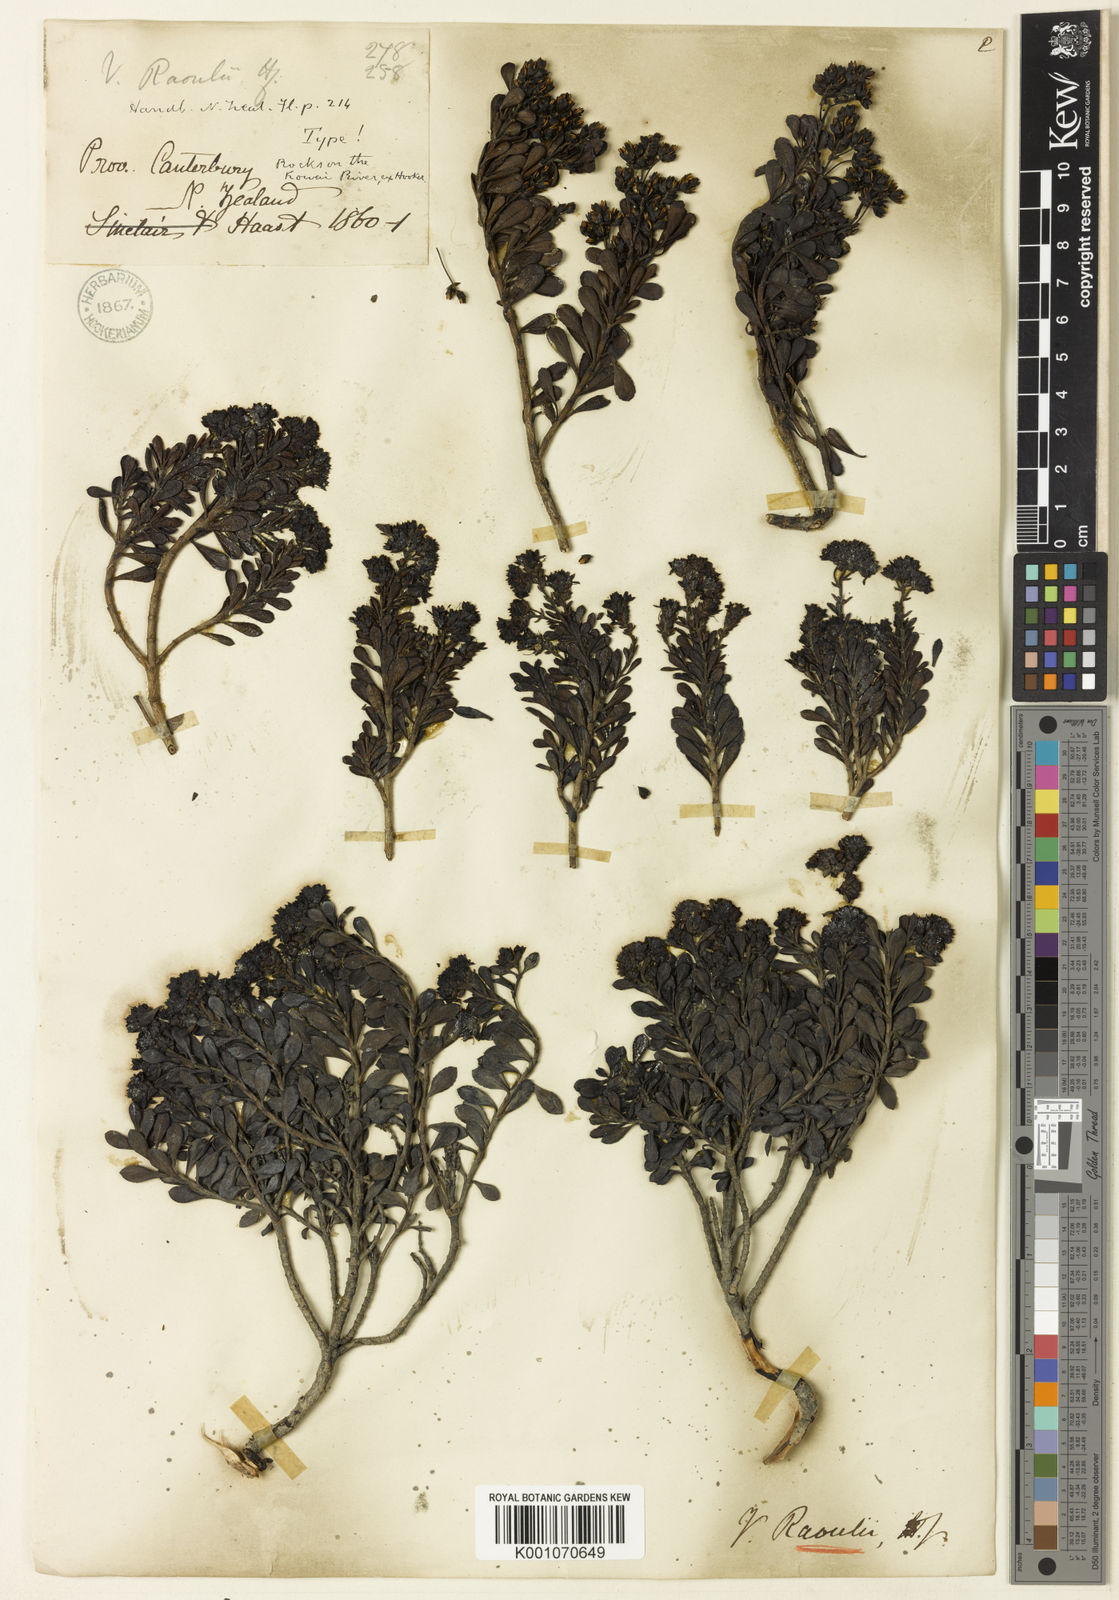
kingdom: Plantae
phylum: Tracheophyta
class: Magnoliopsida
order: Lamiales
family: Plantaginaceae
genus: Veronica
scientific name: Veronica raoulii
